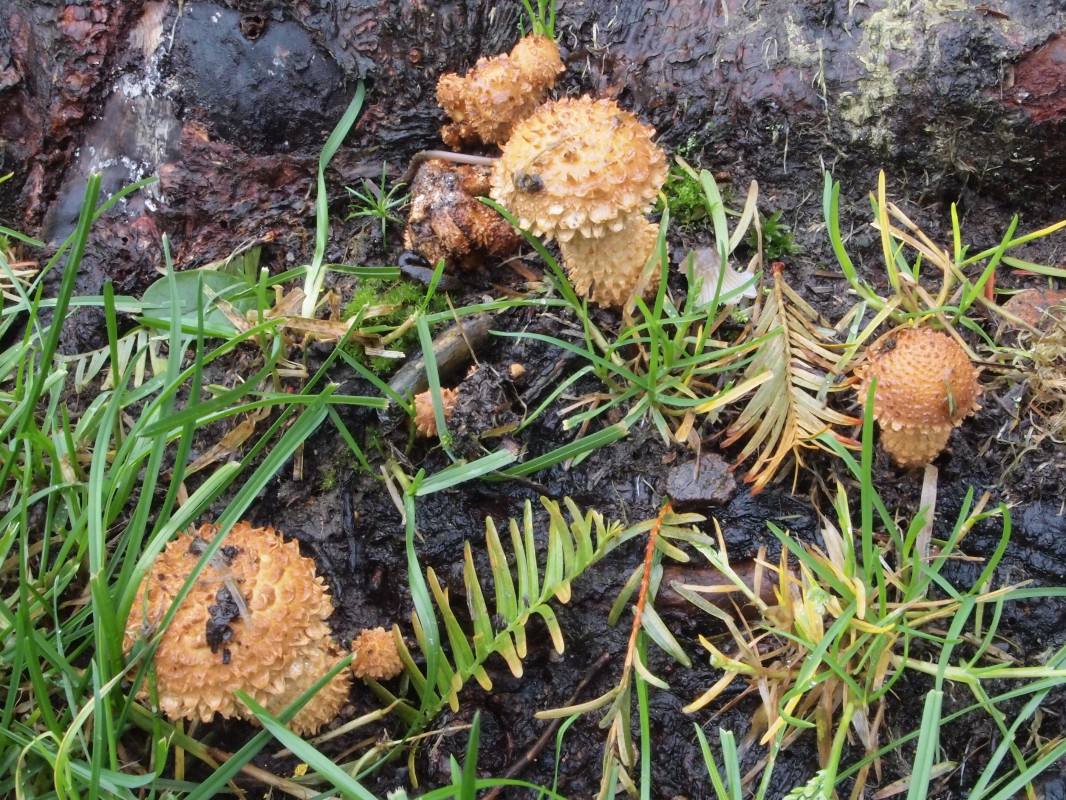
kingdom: Fungi
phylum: Basidiomycota
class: Agaricomycetes
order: Agaricales
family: Strophariaceae
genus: Pholiota
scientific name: Pholiota squarrosa
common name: krumskællet skælhat
